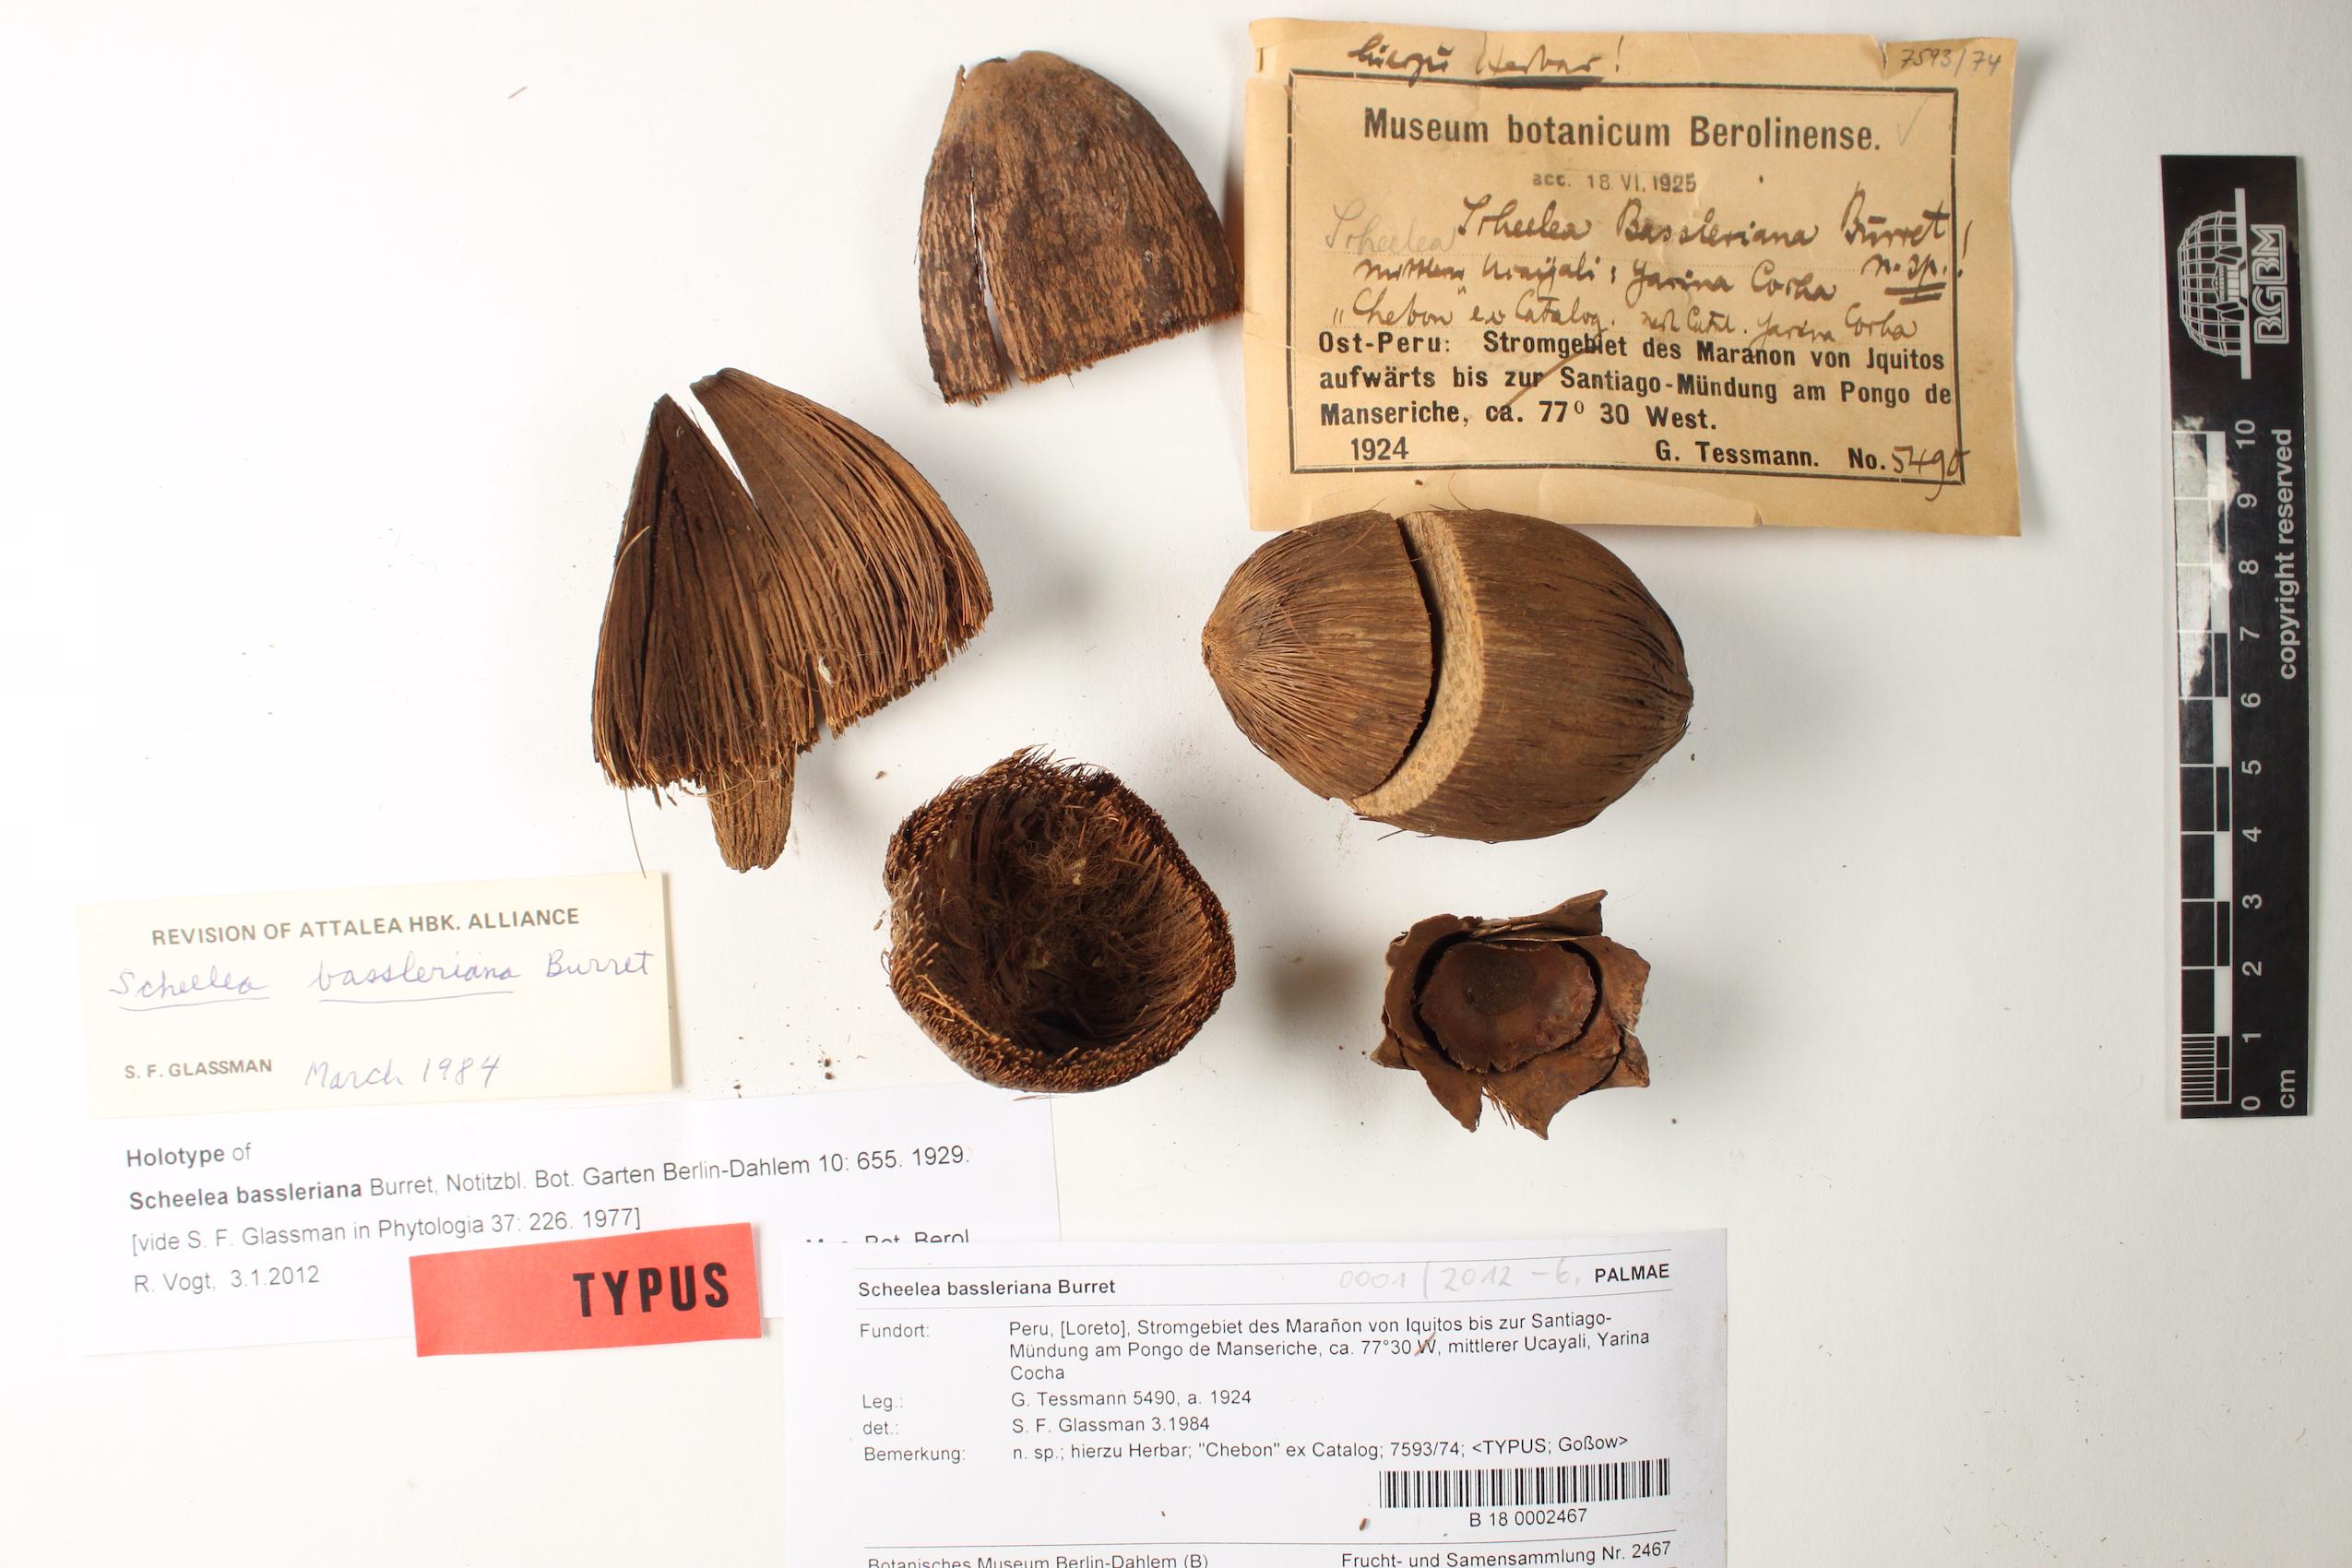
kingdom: Plantae
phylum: Tracheophyta
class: Liliopsida
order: Arecales
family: Arecaceae
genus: Attalea
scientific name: Attalea bassleriana
